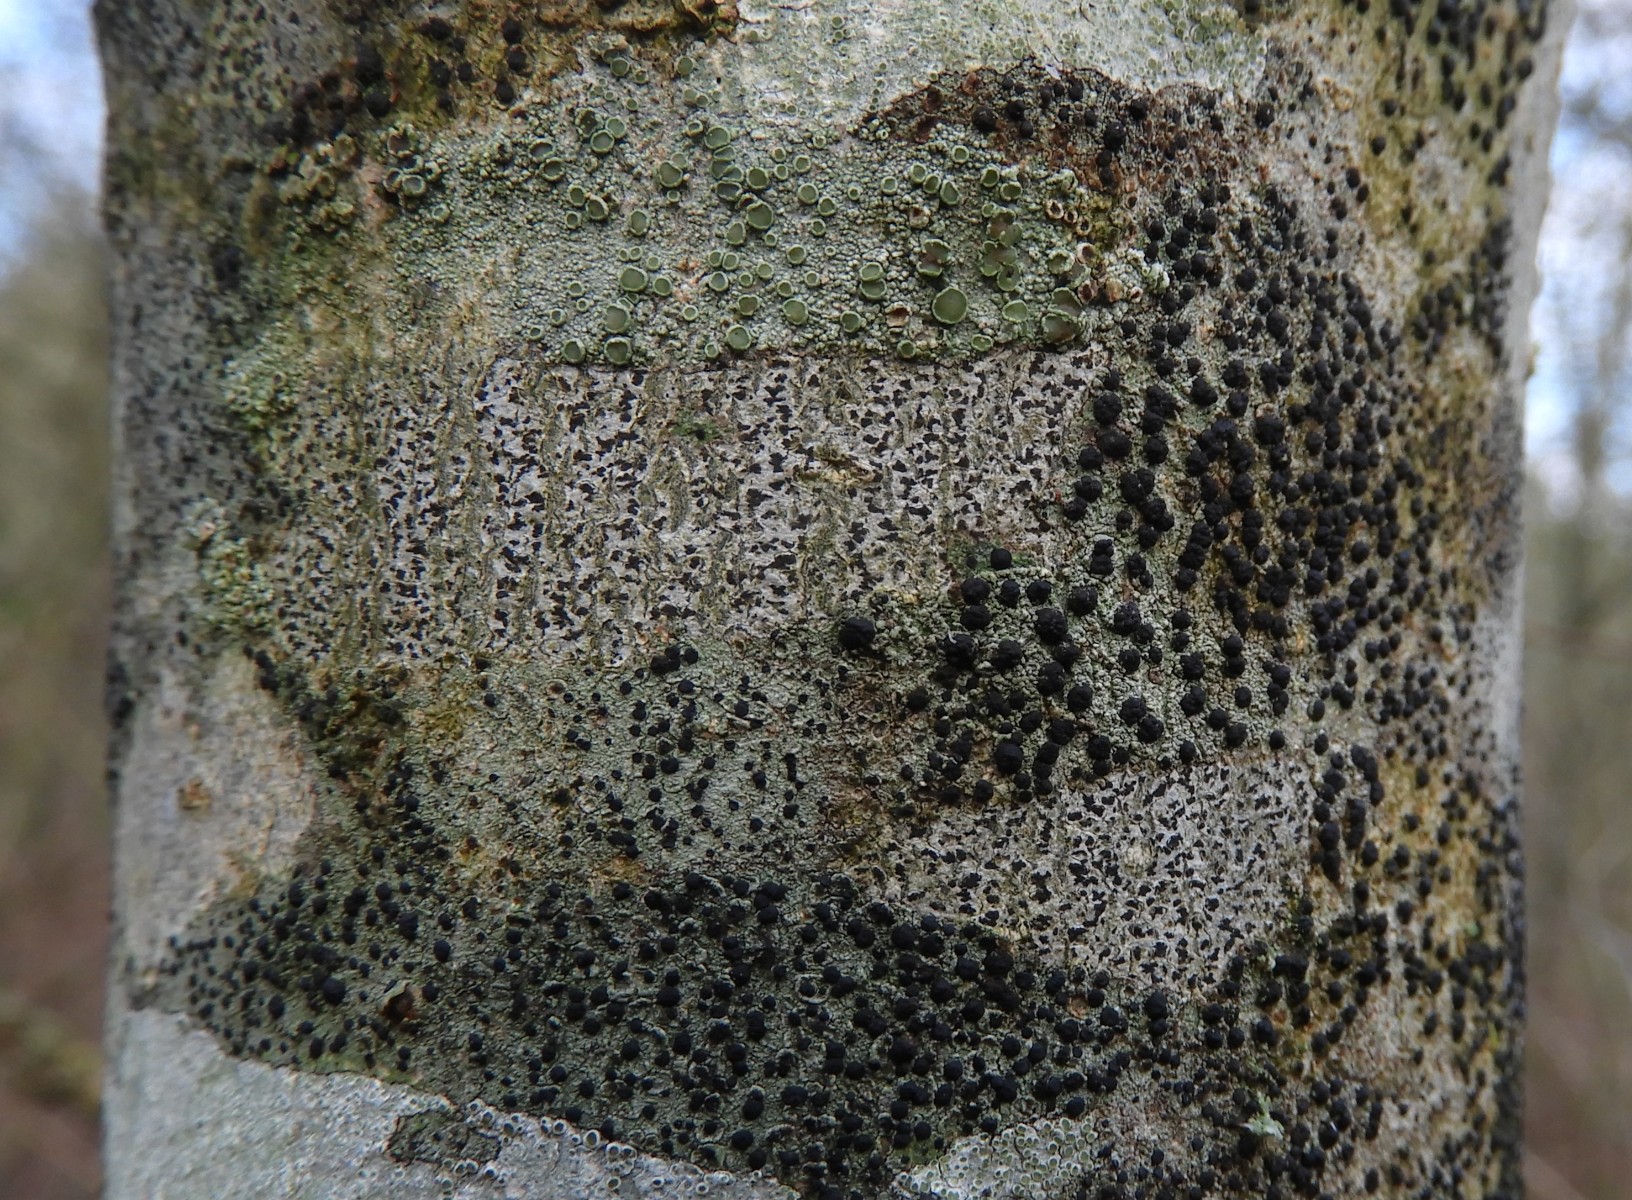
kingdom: Fungi
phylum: Ascomycota
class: Arthoniomycetes
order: Arthoniales
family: Arthoniaceae
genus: Arthonia
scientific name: Arthonia radiata
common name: stjerne-pletlav
